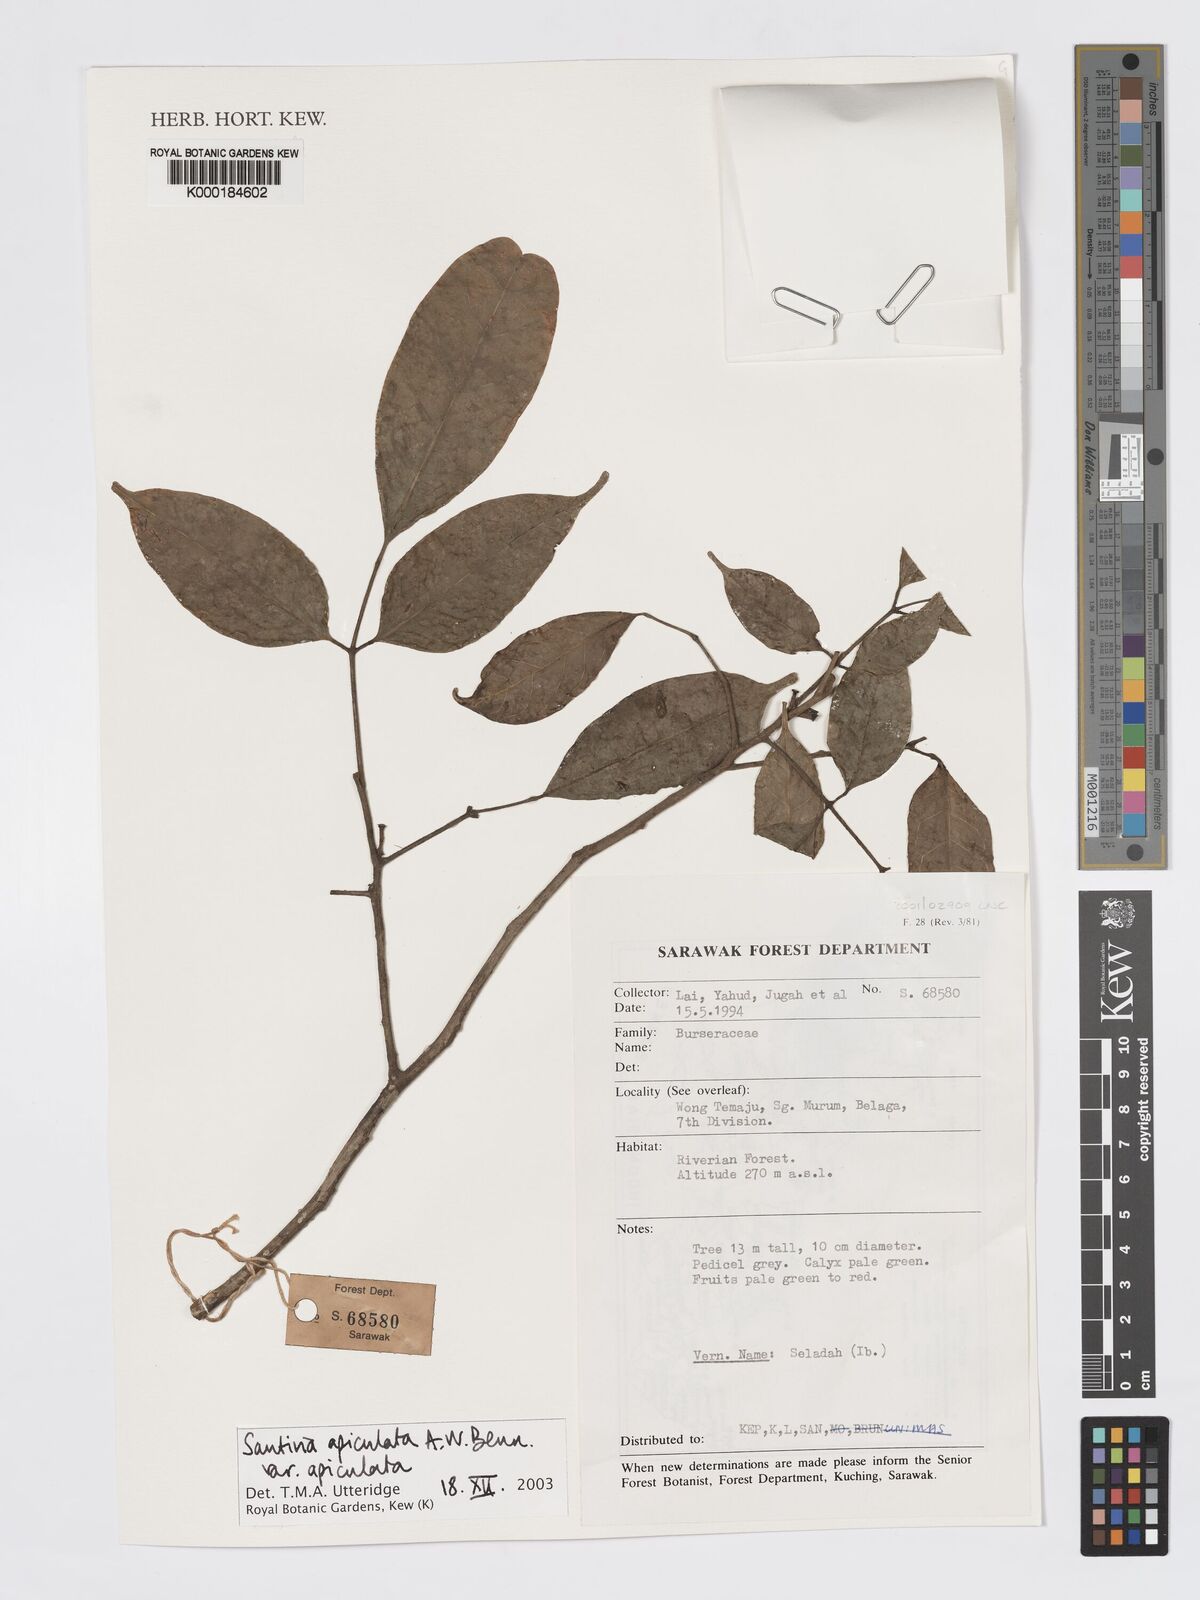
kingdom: Plantae
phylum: Tracheophyta
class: Magnoliopsida
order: Sapindales
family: Burseraceae
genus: Santiria
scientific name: Santiria apiculata
